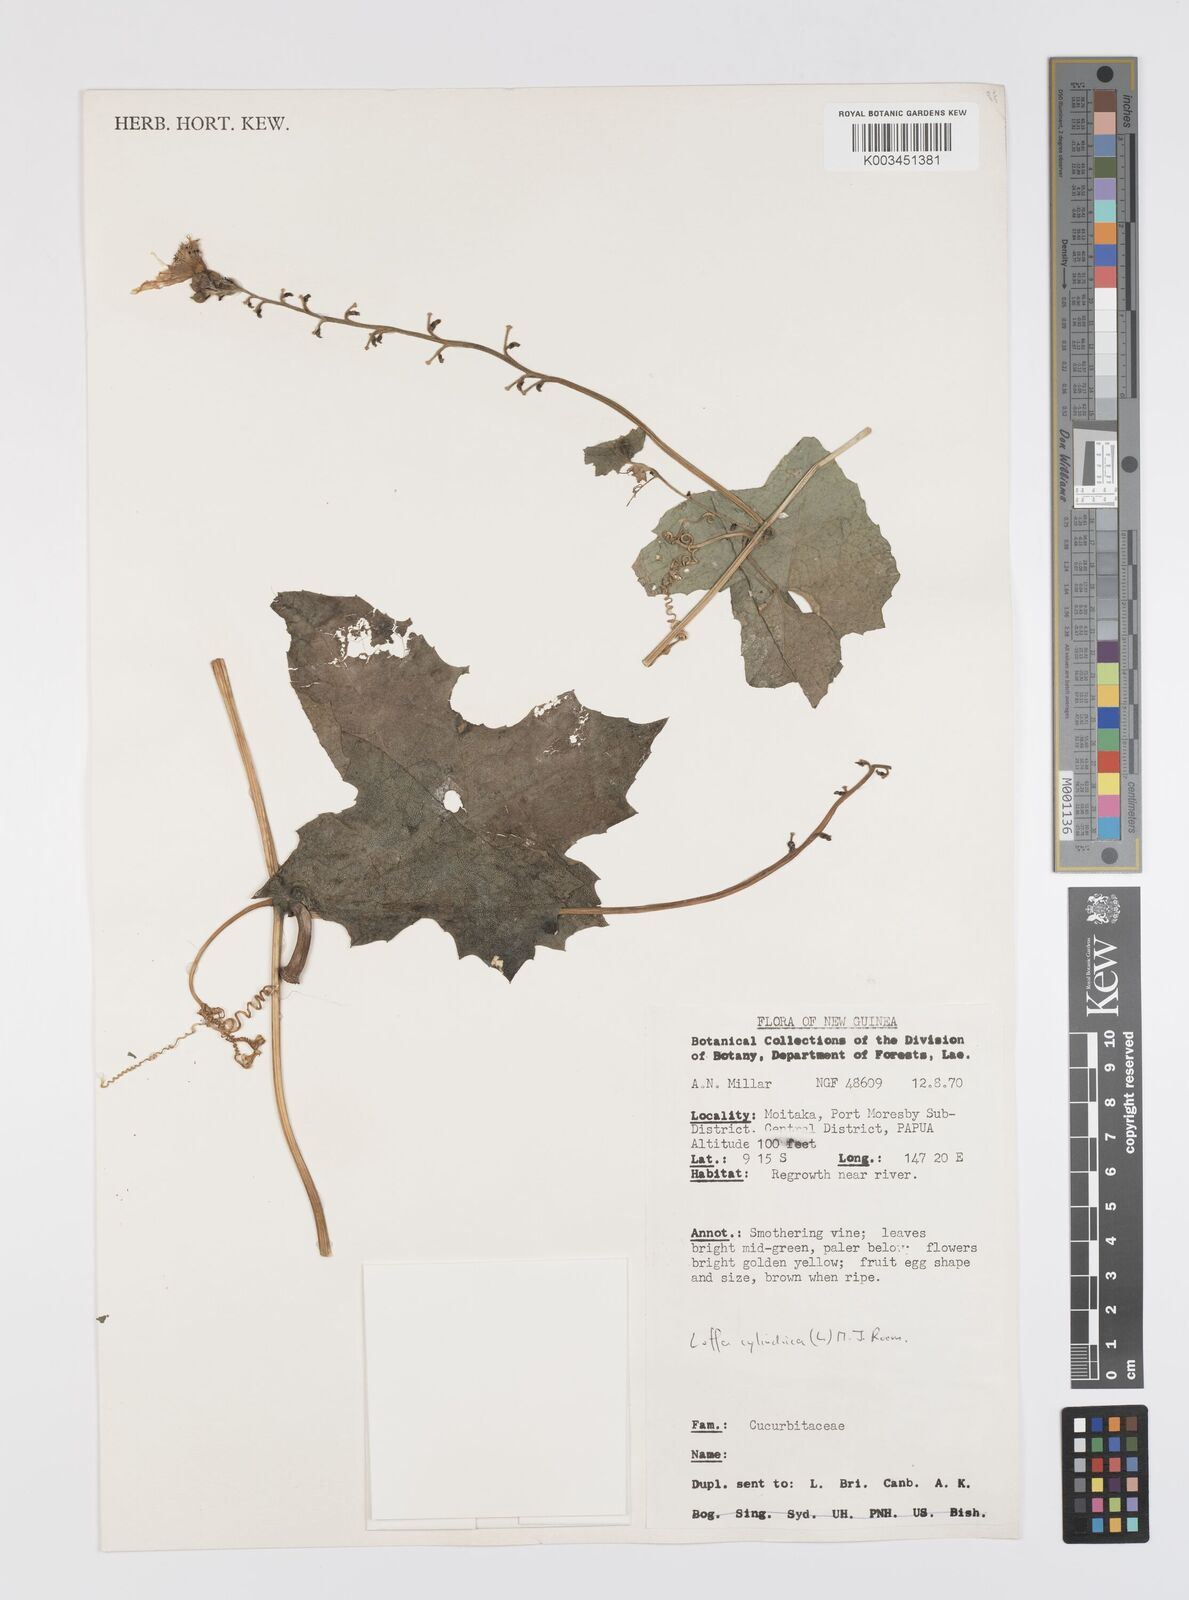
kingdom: Plantae
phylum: Tracheophyta
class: Magnoliopsida
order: Cucurbitales
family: Cucurbitaceae
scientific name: Cucurbitaceae
